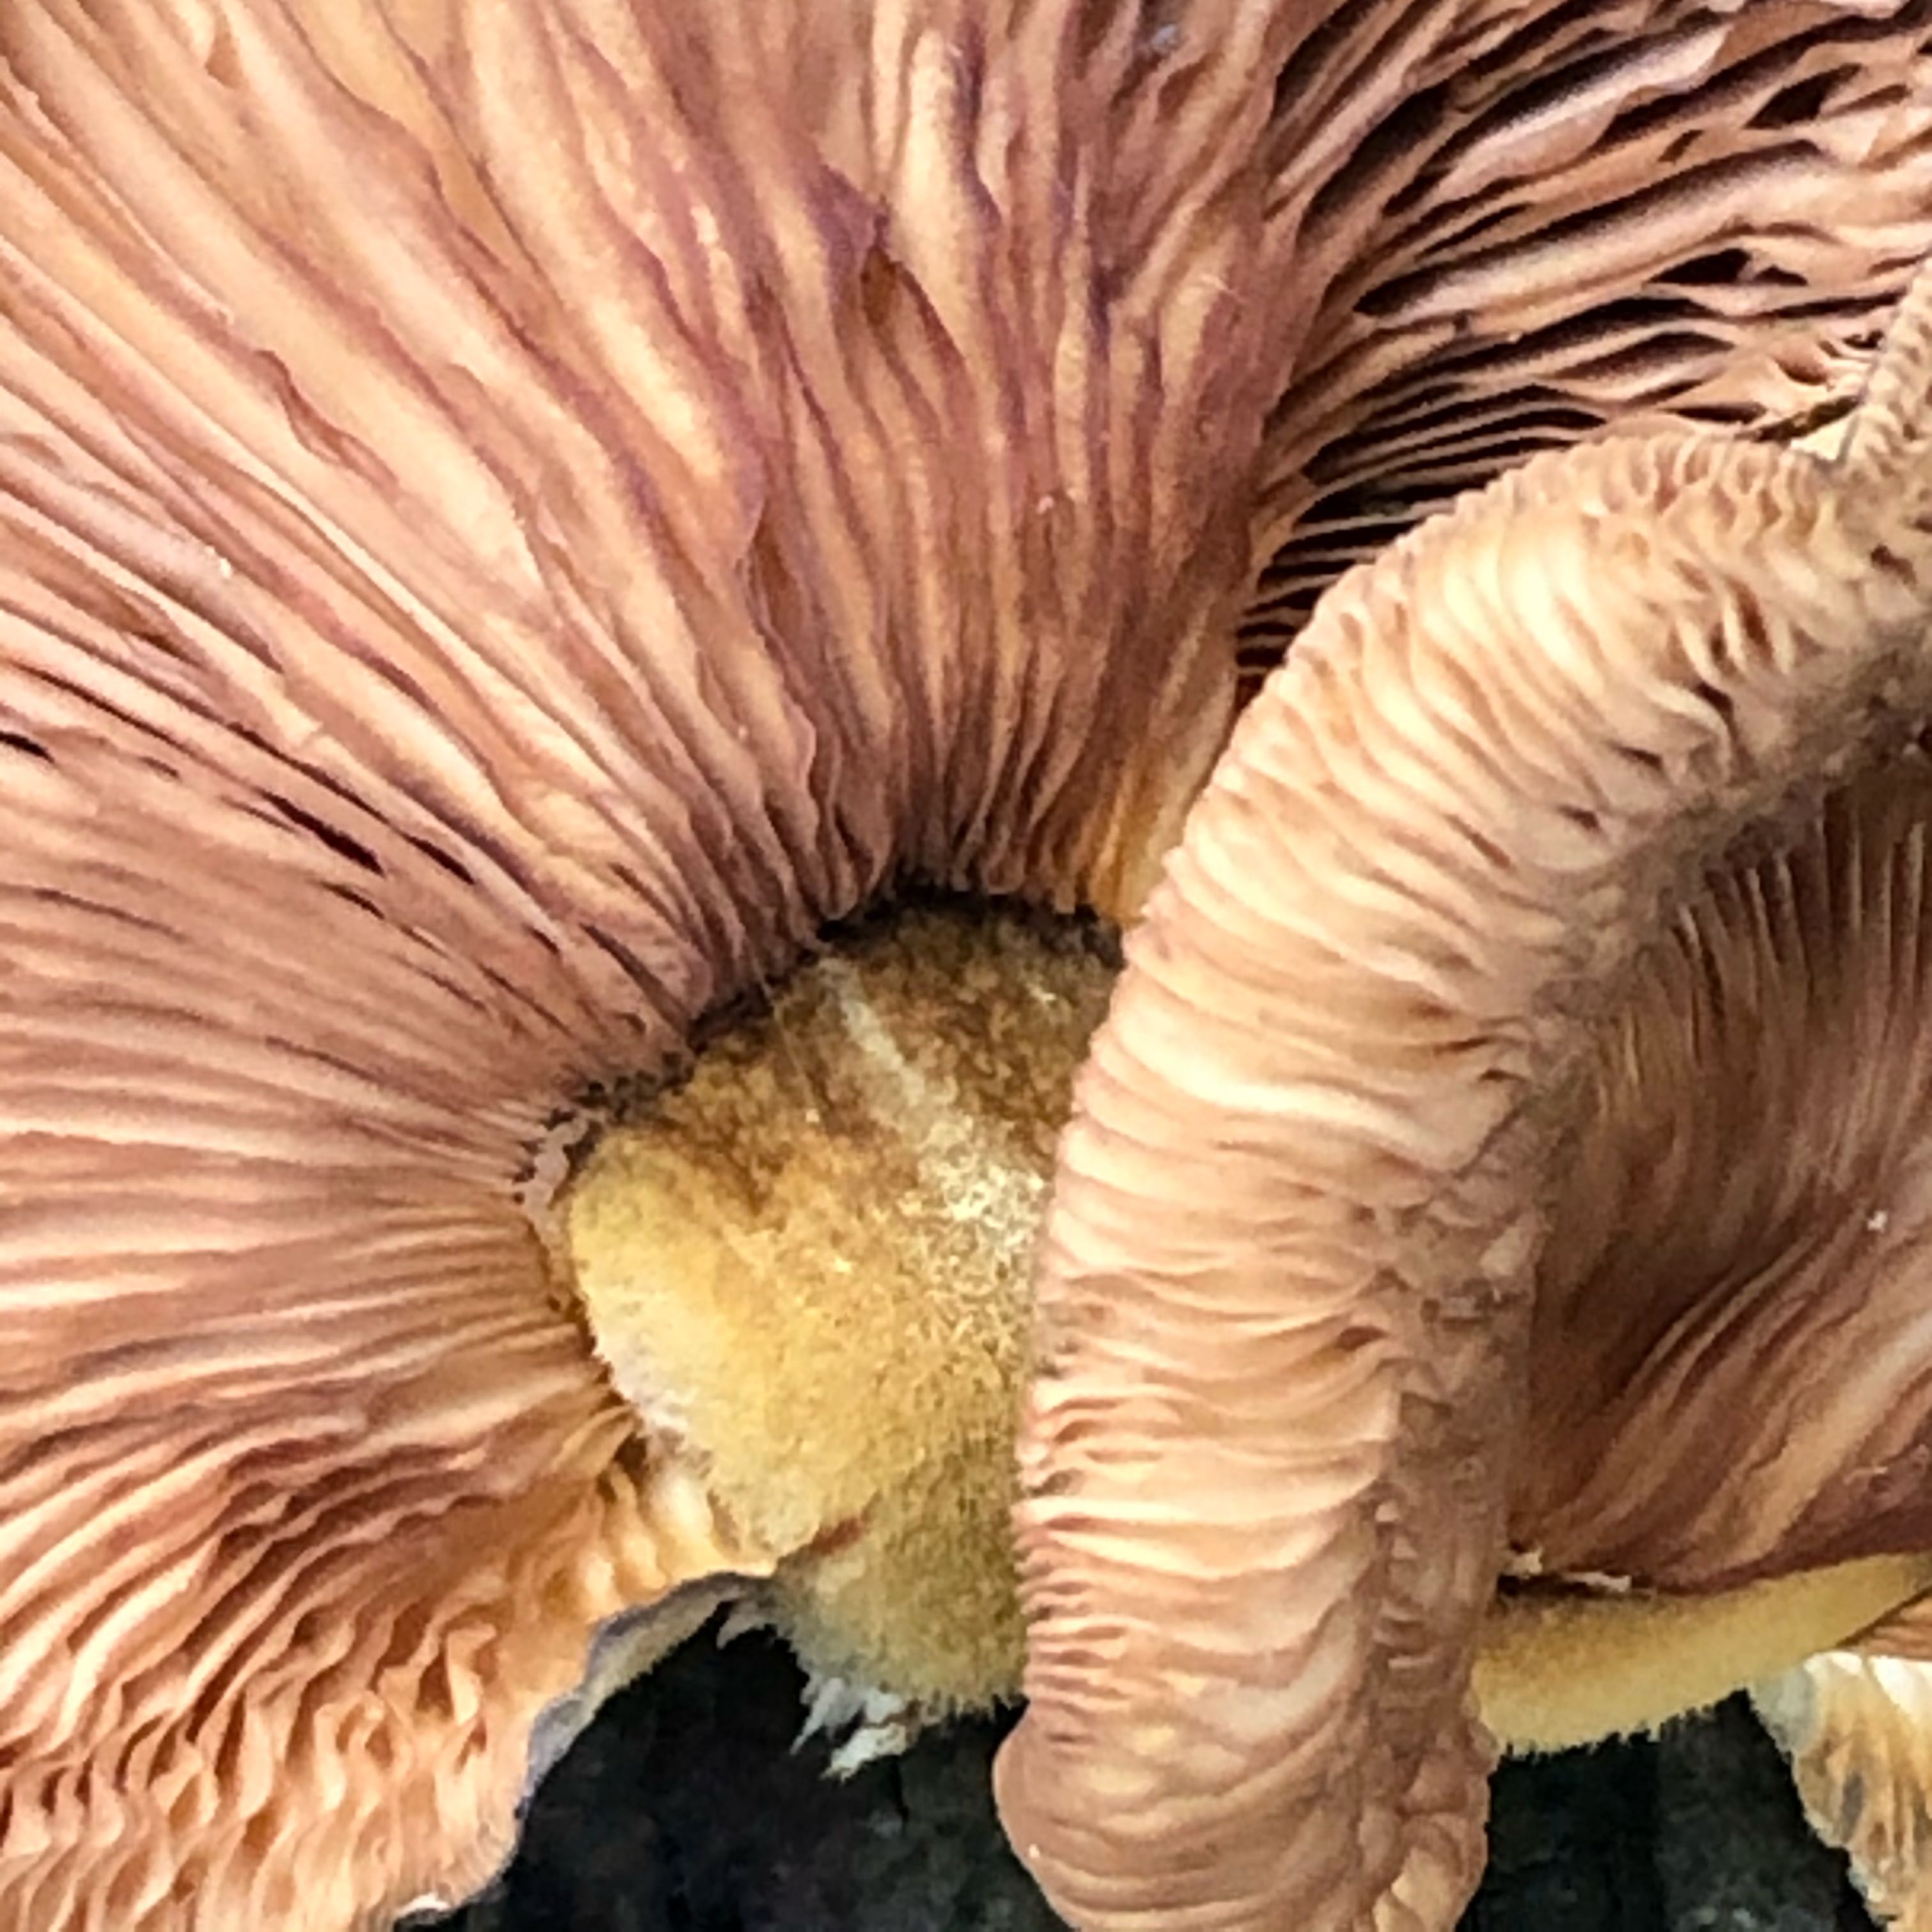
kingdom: Fungi
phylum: Basidiomycota
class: Agaricomycetes
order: Agaricales
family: Sarcomyxaceae
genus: Sarcomyxa
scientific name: Sarcomyxa serotina
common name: gummihat
